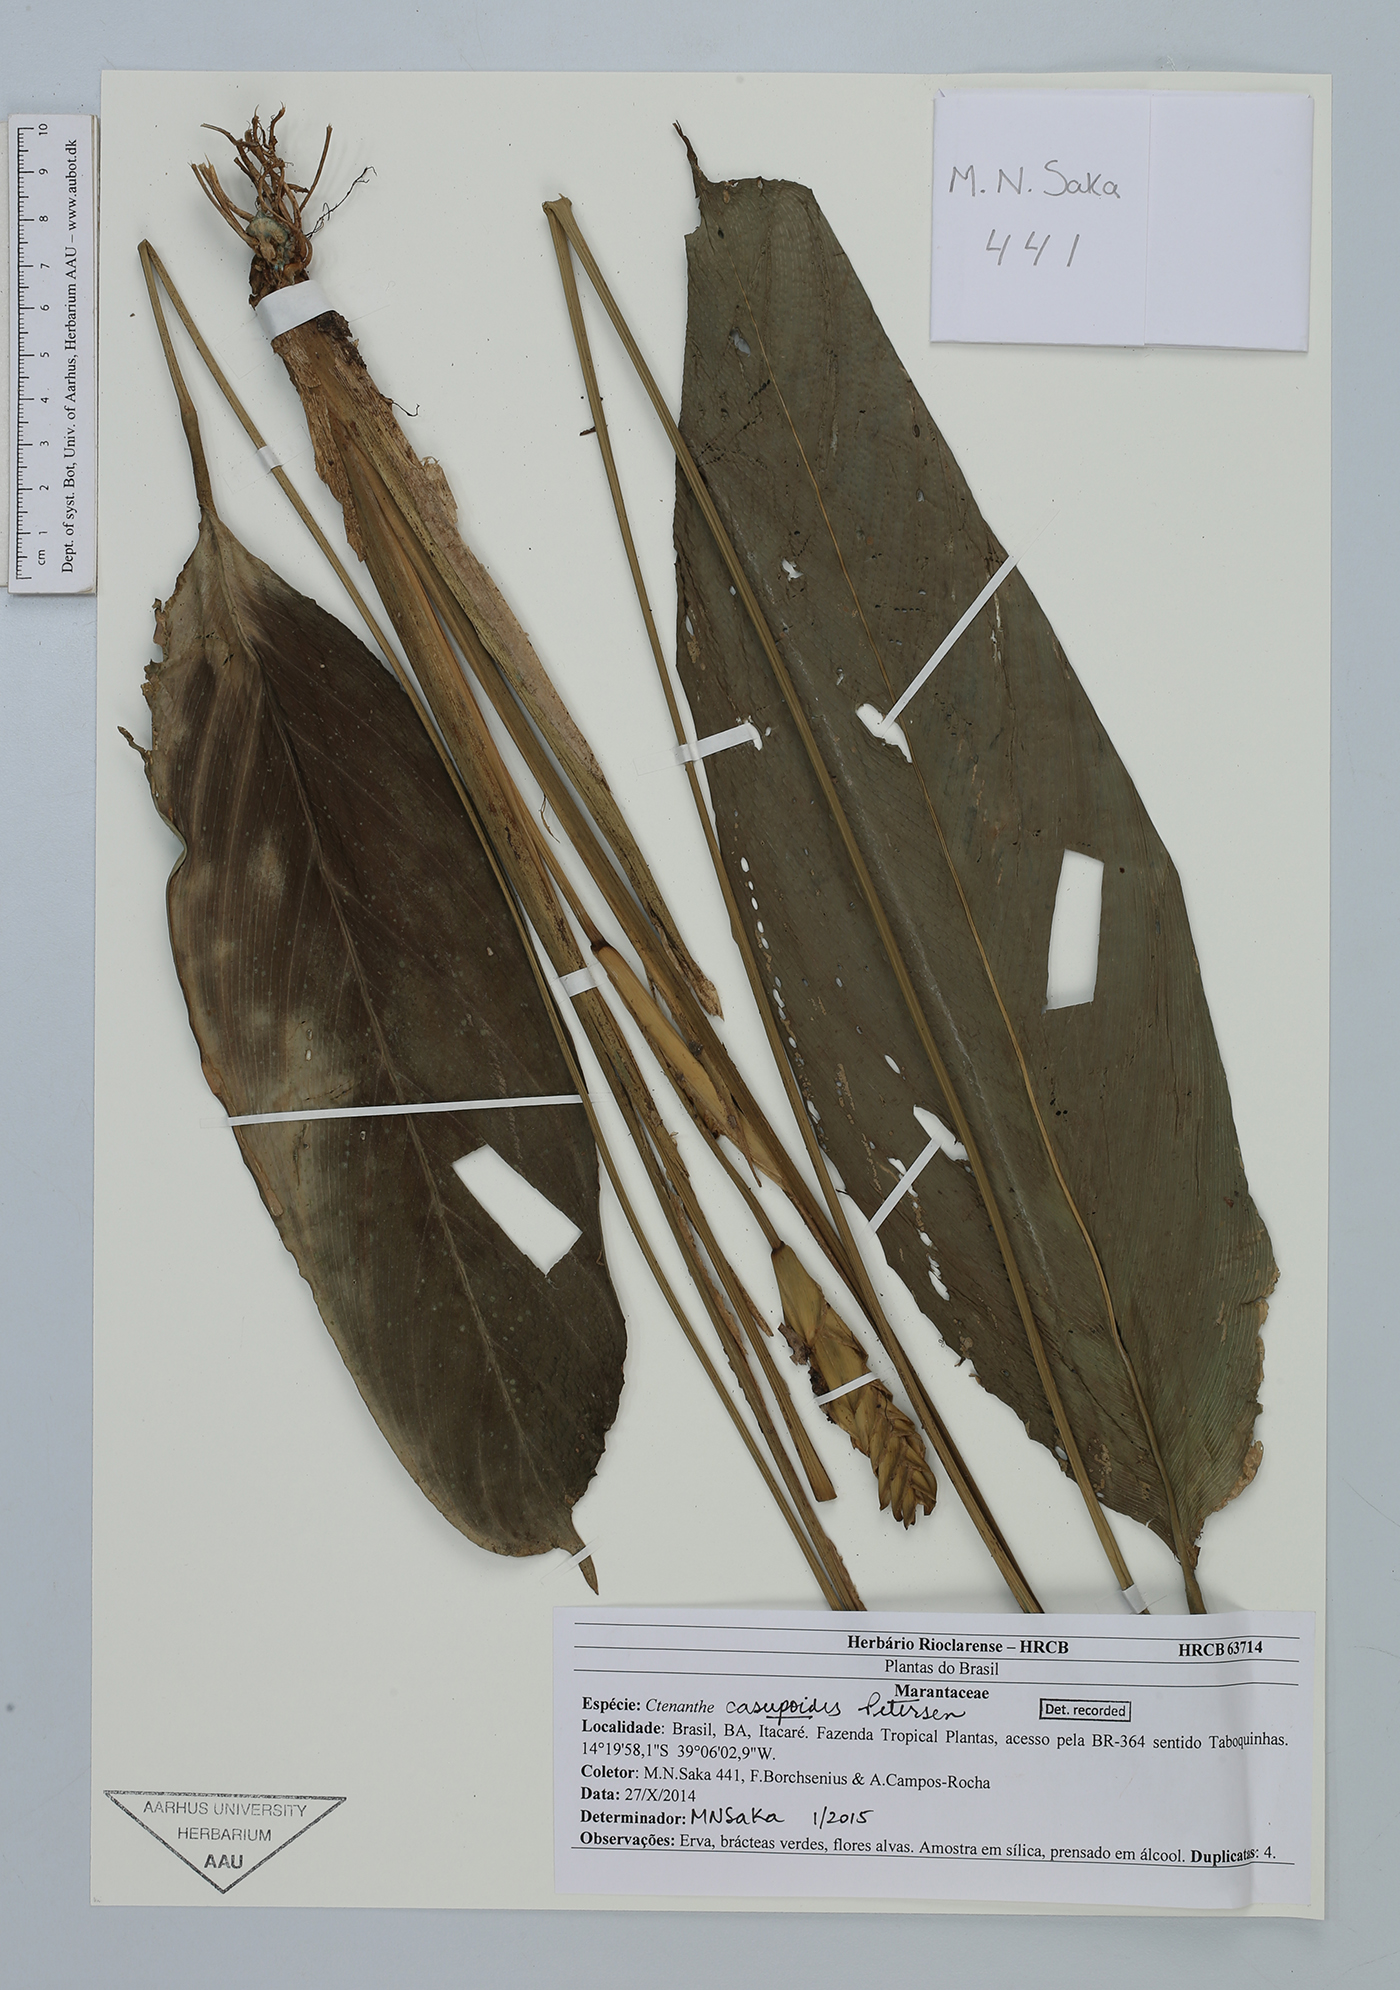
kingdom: Plantae
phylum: Tracheophyta
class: Liliopsida
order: Zingiberales
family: Marantaceae
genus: Ctenanthe
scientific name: Ctenanthe casupoides
